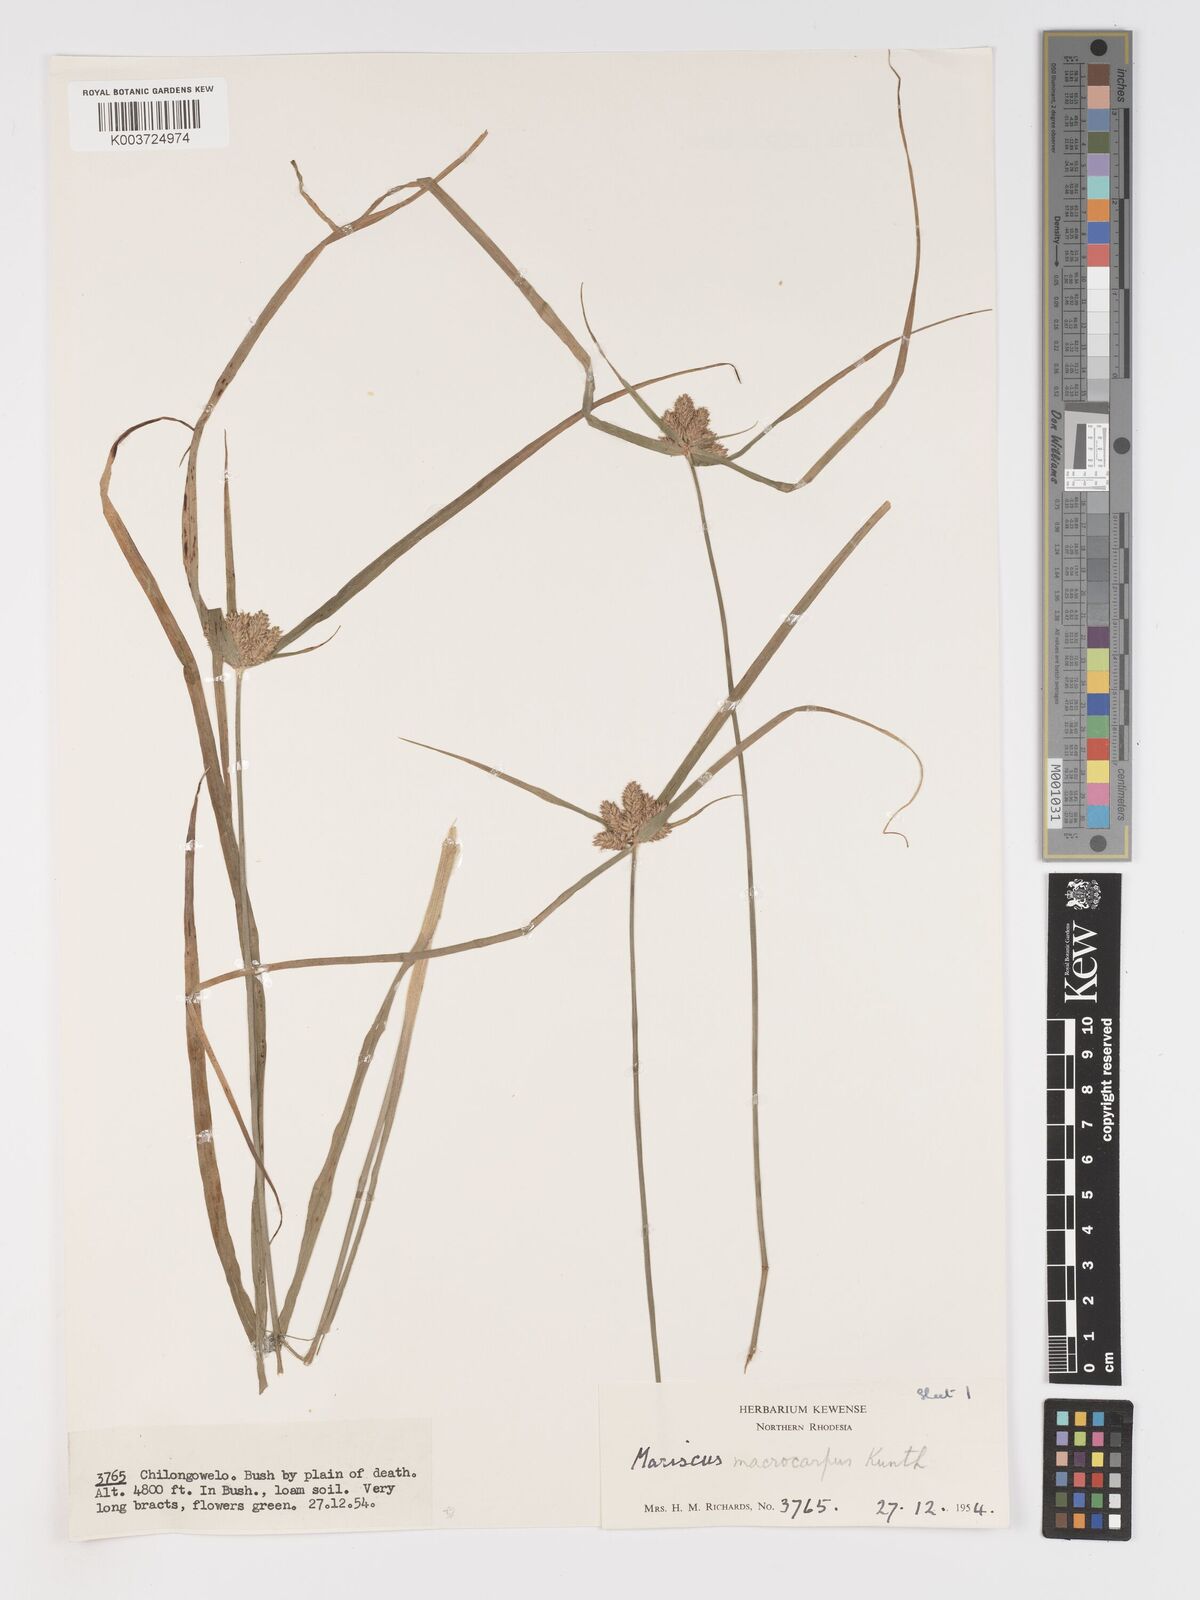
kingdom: Plantae
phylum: Tracheophyta
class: Liliopsida
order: Poales
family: Cyperaceae
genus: Cyperus
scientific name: Cyperus trigonellus
